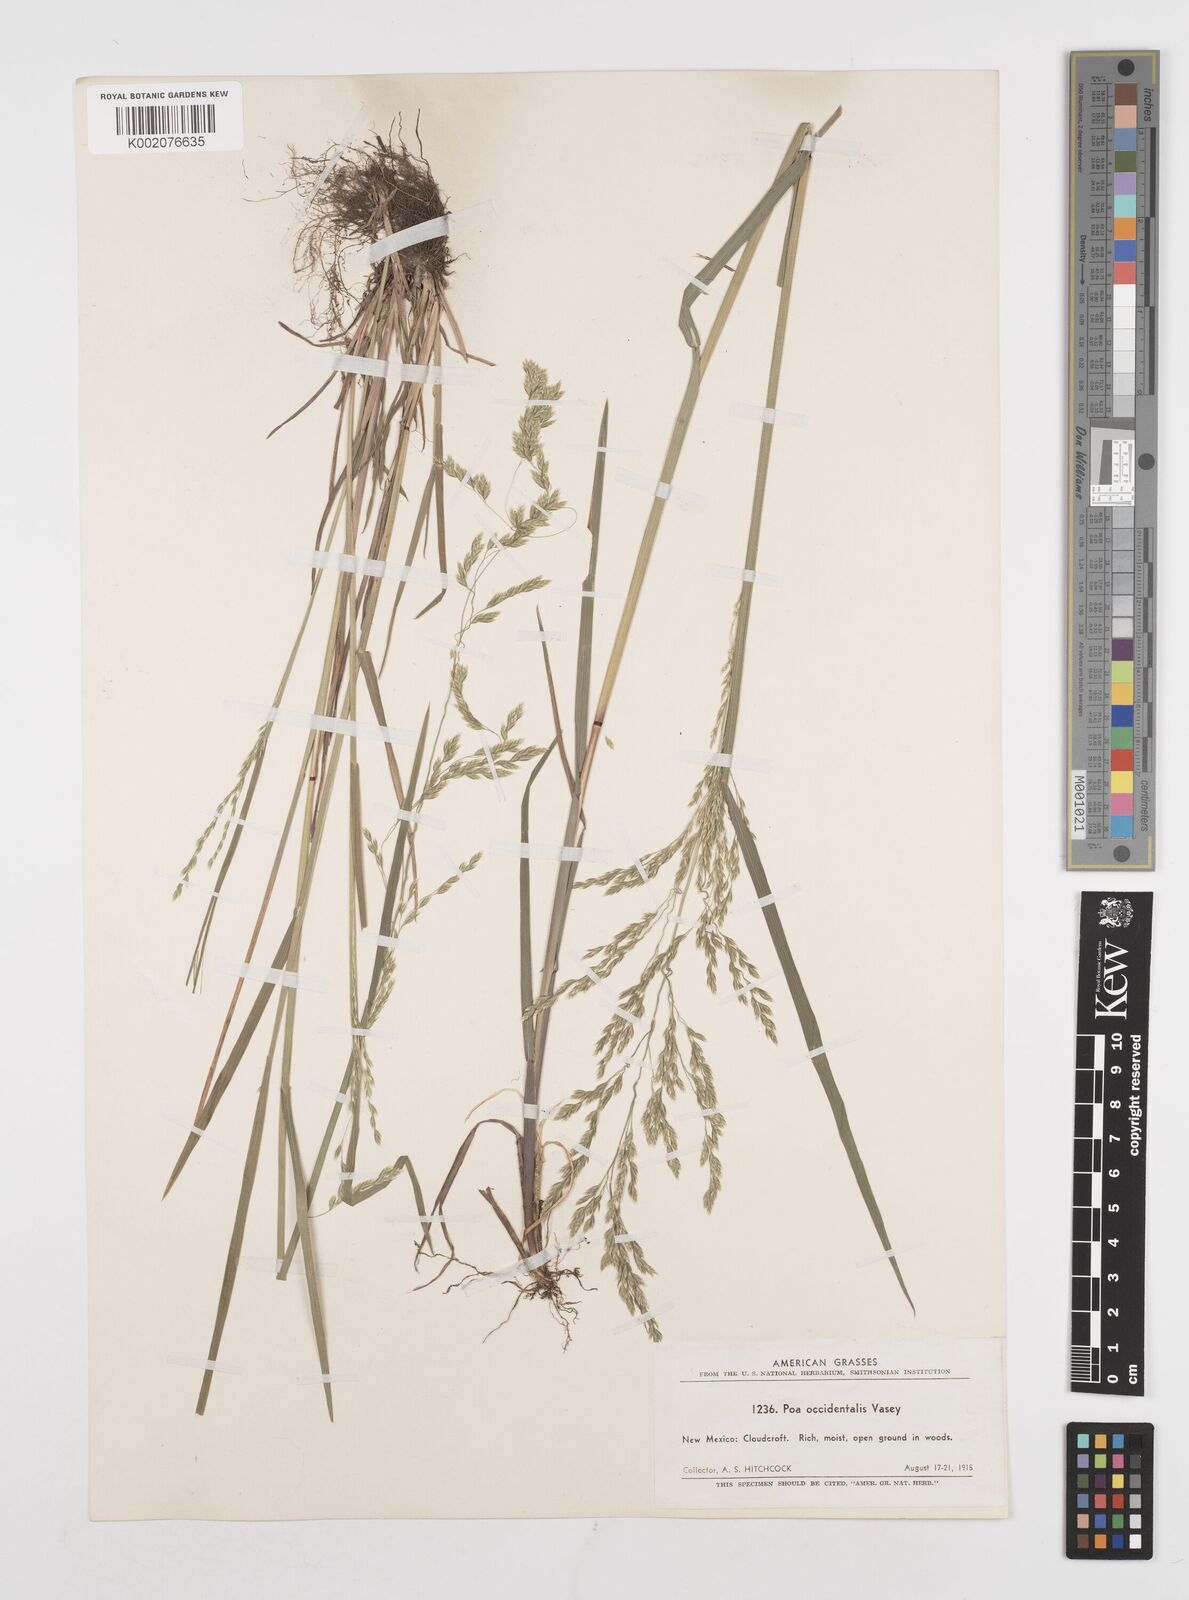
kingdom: Plantae
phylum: Tracheophyta
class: Liliopsida
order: Poales
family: Poaceae
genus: Poa
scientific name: Poa occidentalis
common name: New mexican bluegrass
